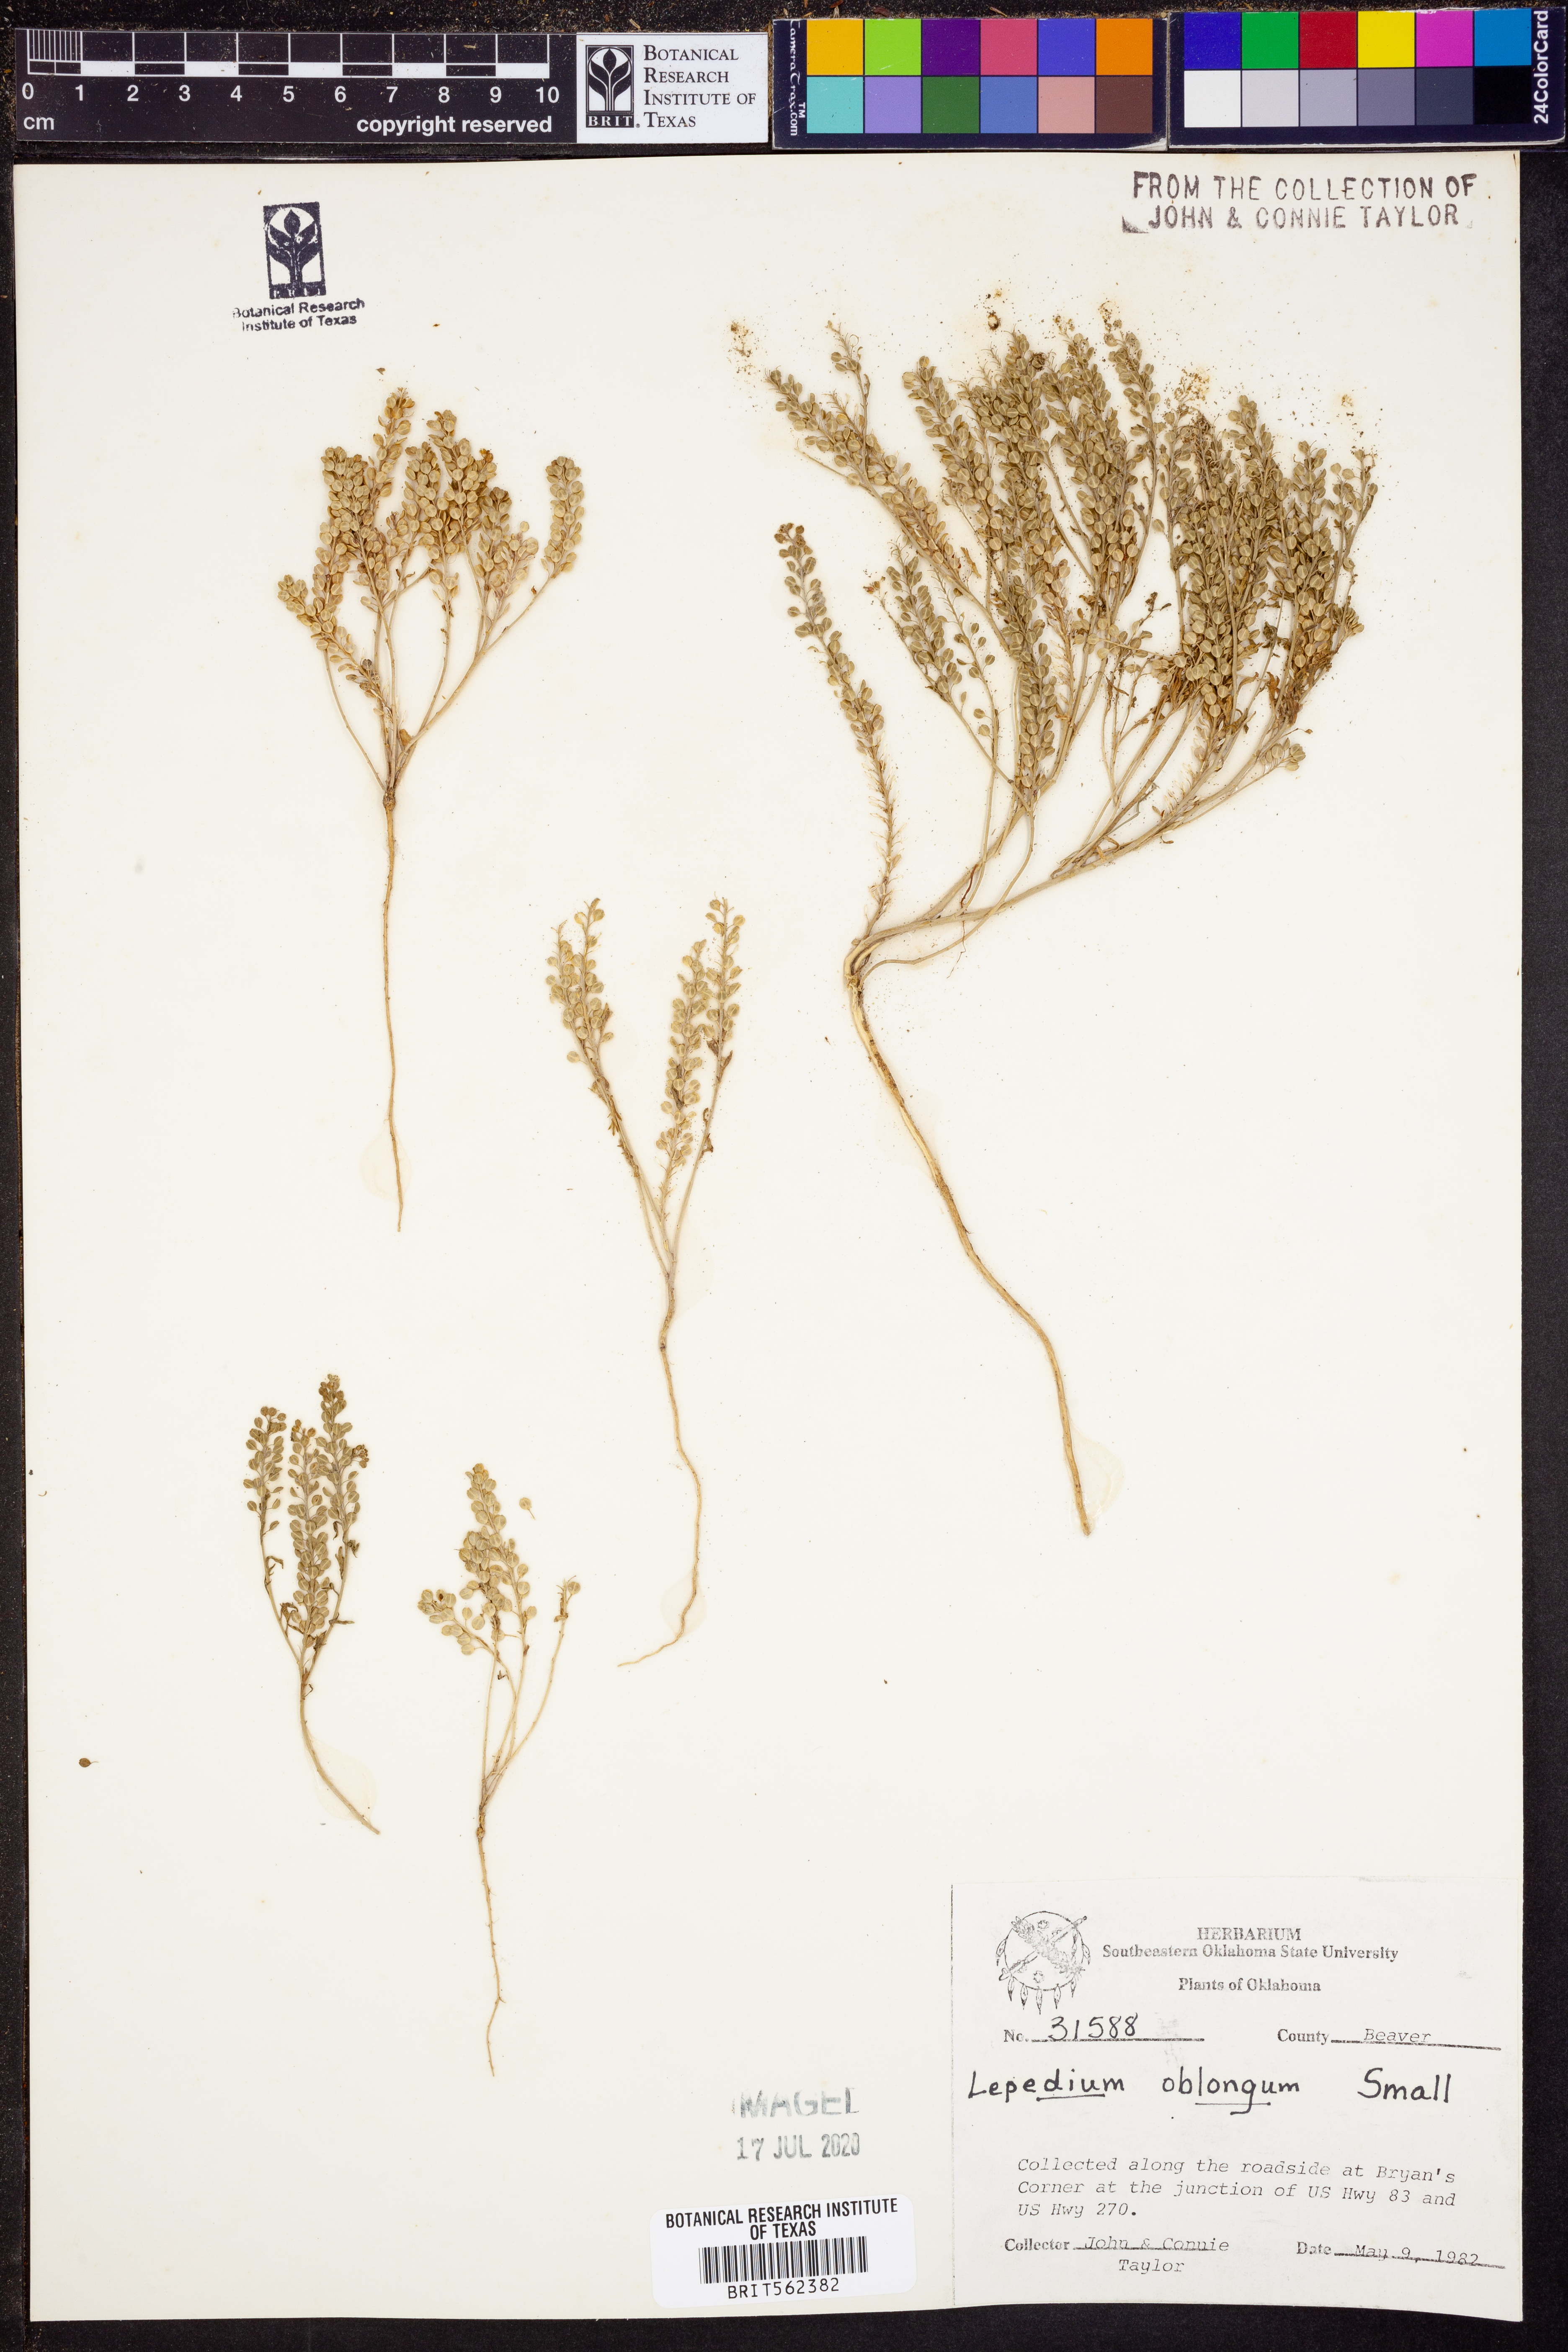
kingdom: Plantae
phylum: Tracheophyta
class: Magnoliopsida
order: Brassicales
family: Brassicaceae
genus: Lepidium
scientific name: Lepidium oblongum
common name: Veiny pepperweed
